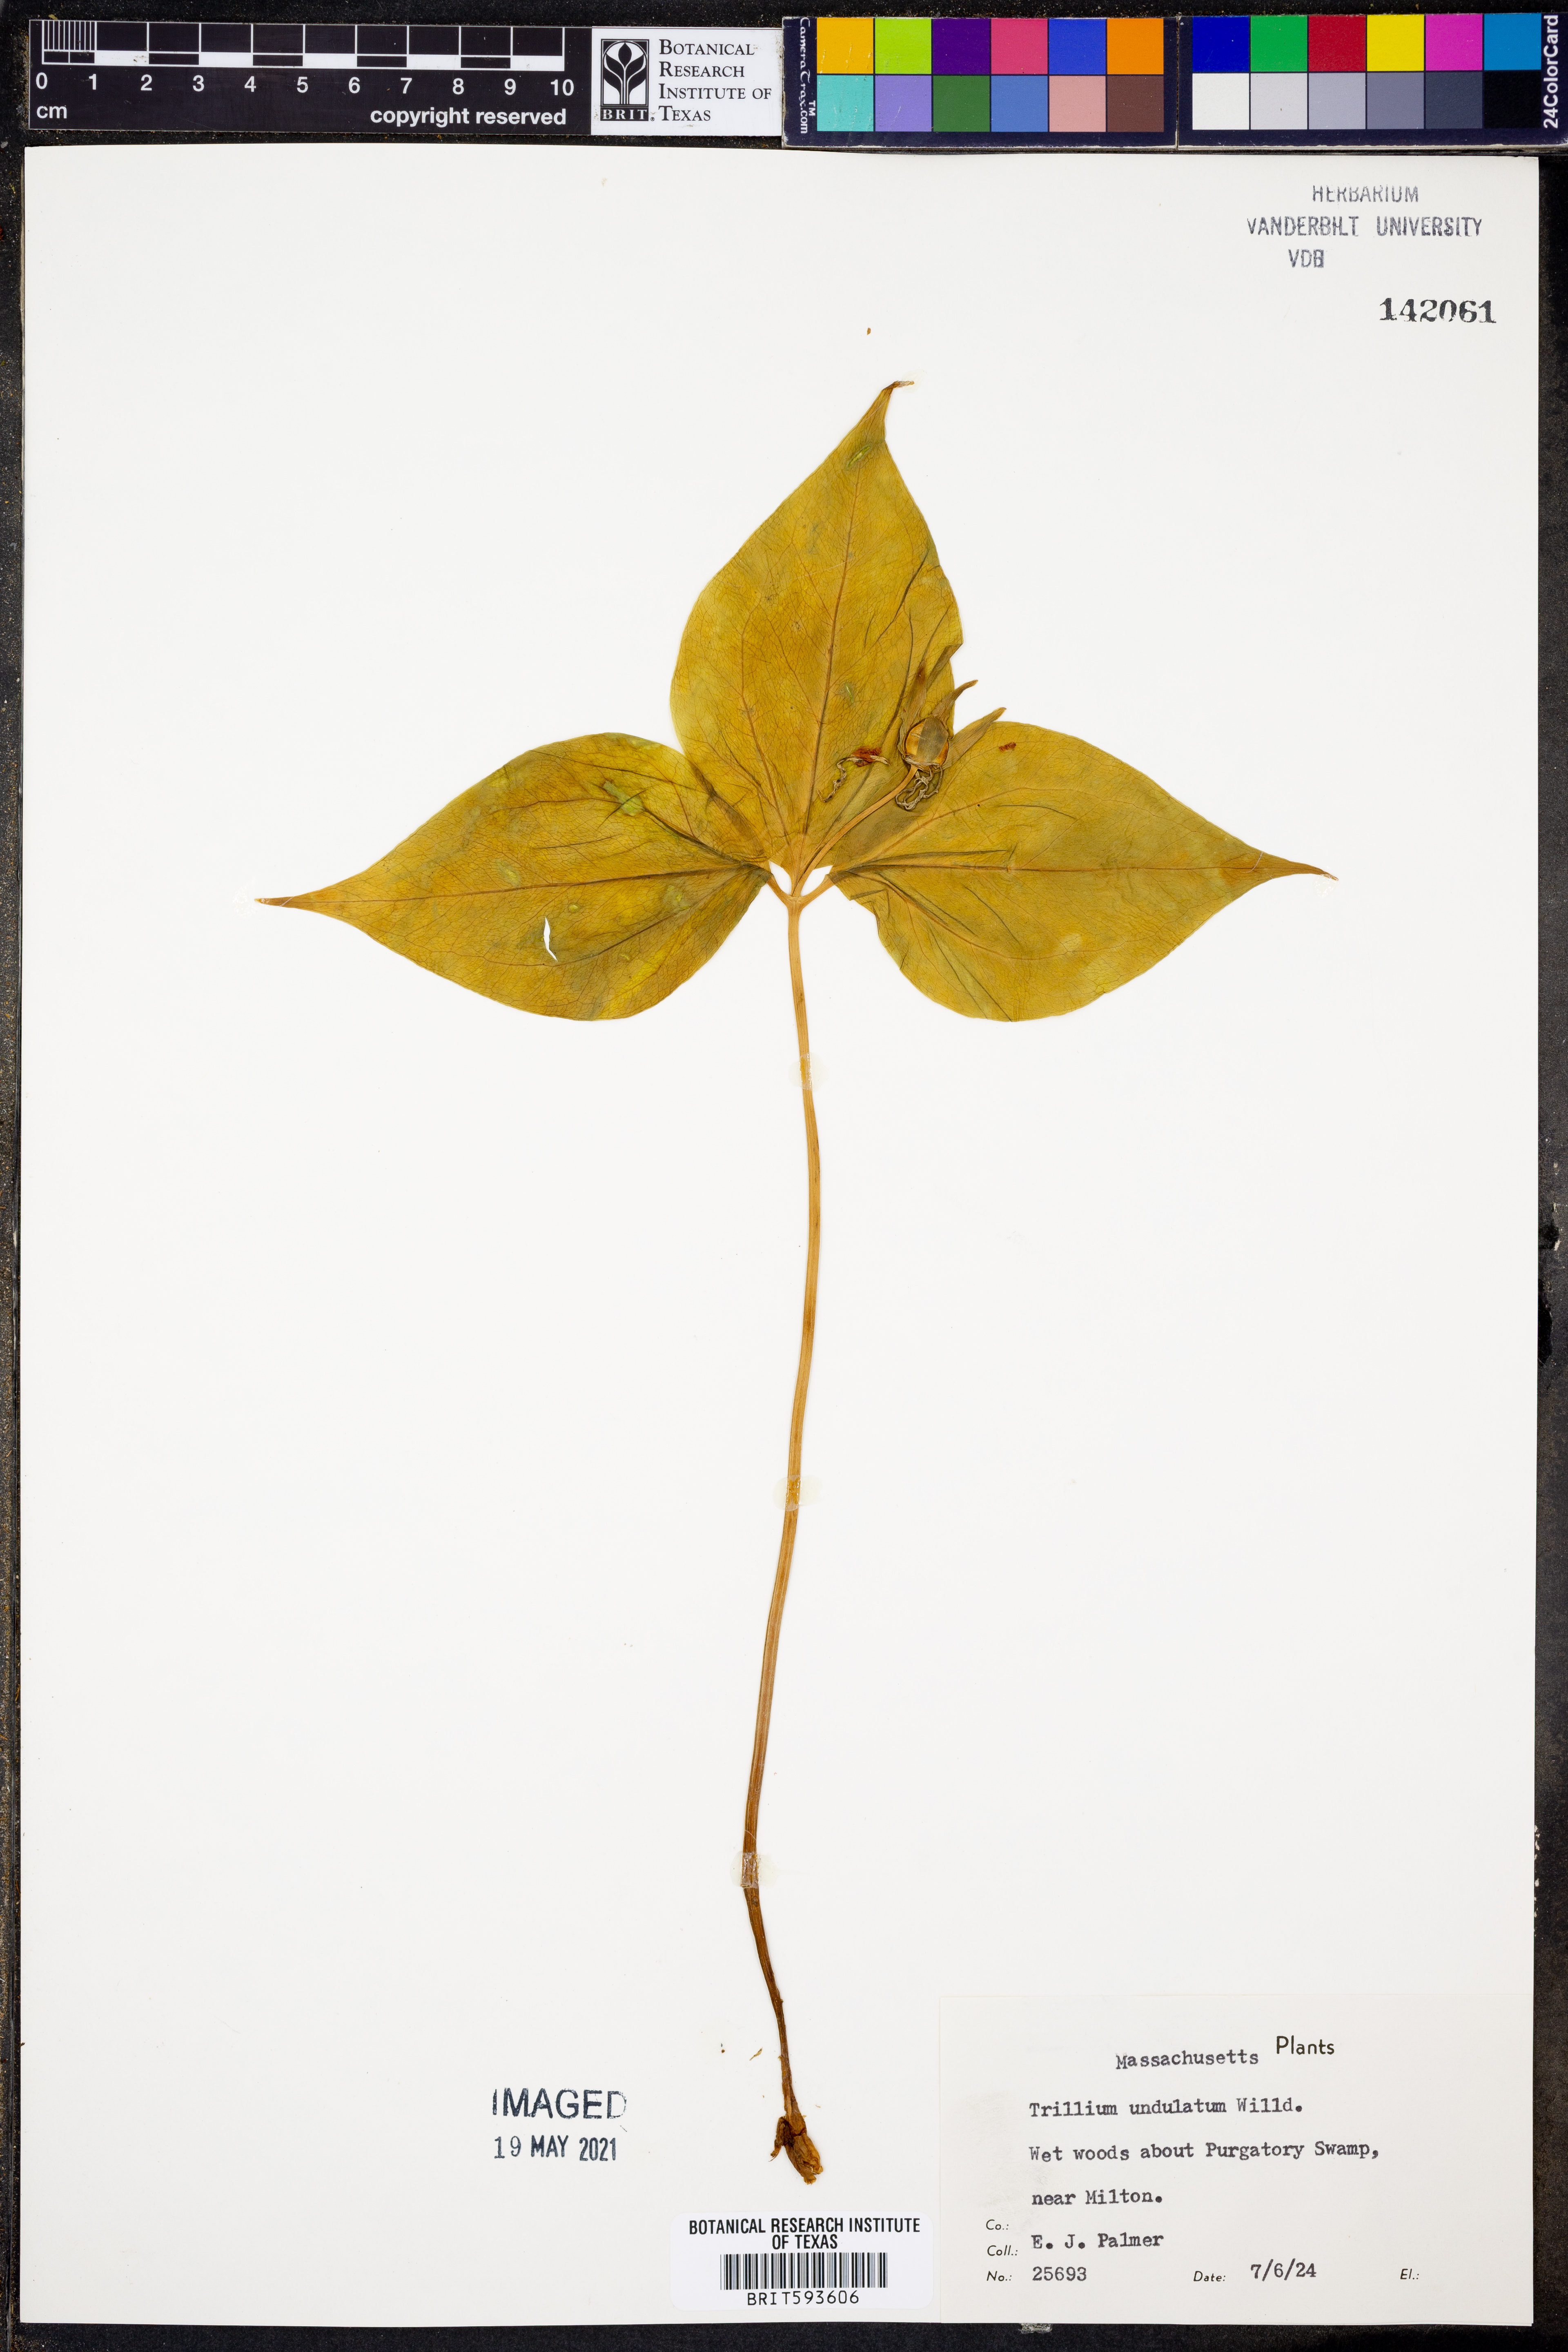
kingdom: Plantae
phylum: Tracheophyta
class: Liliopsida
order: Liliales
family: Melanthiaceae
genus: Trillium
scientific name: Trillium undulatum
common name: Paint trillium
